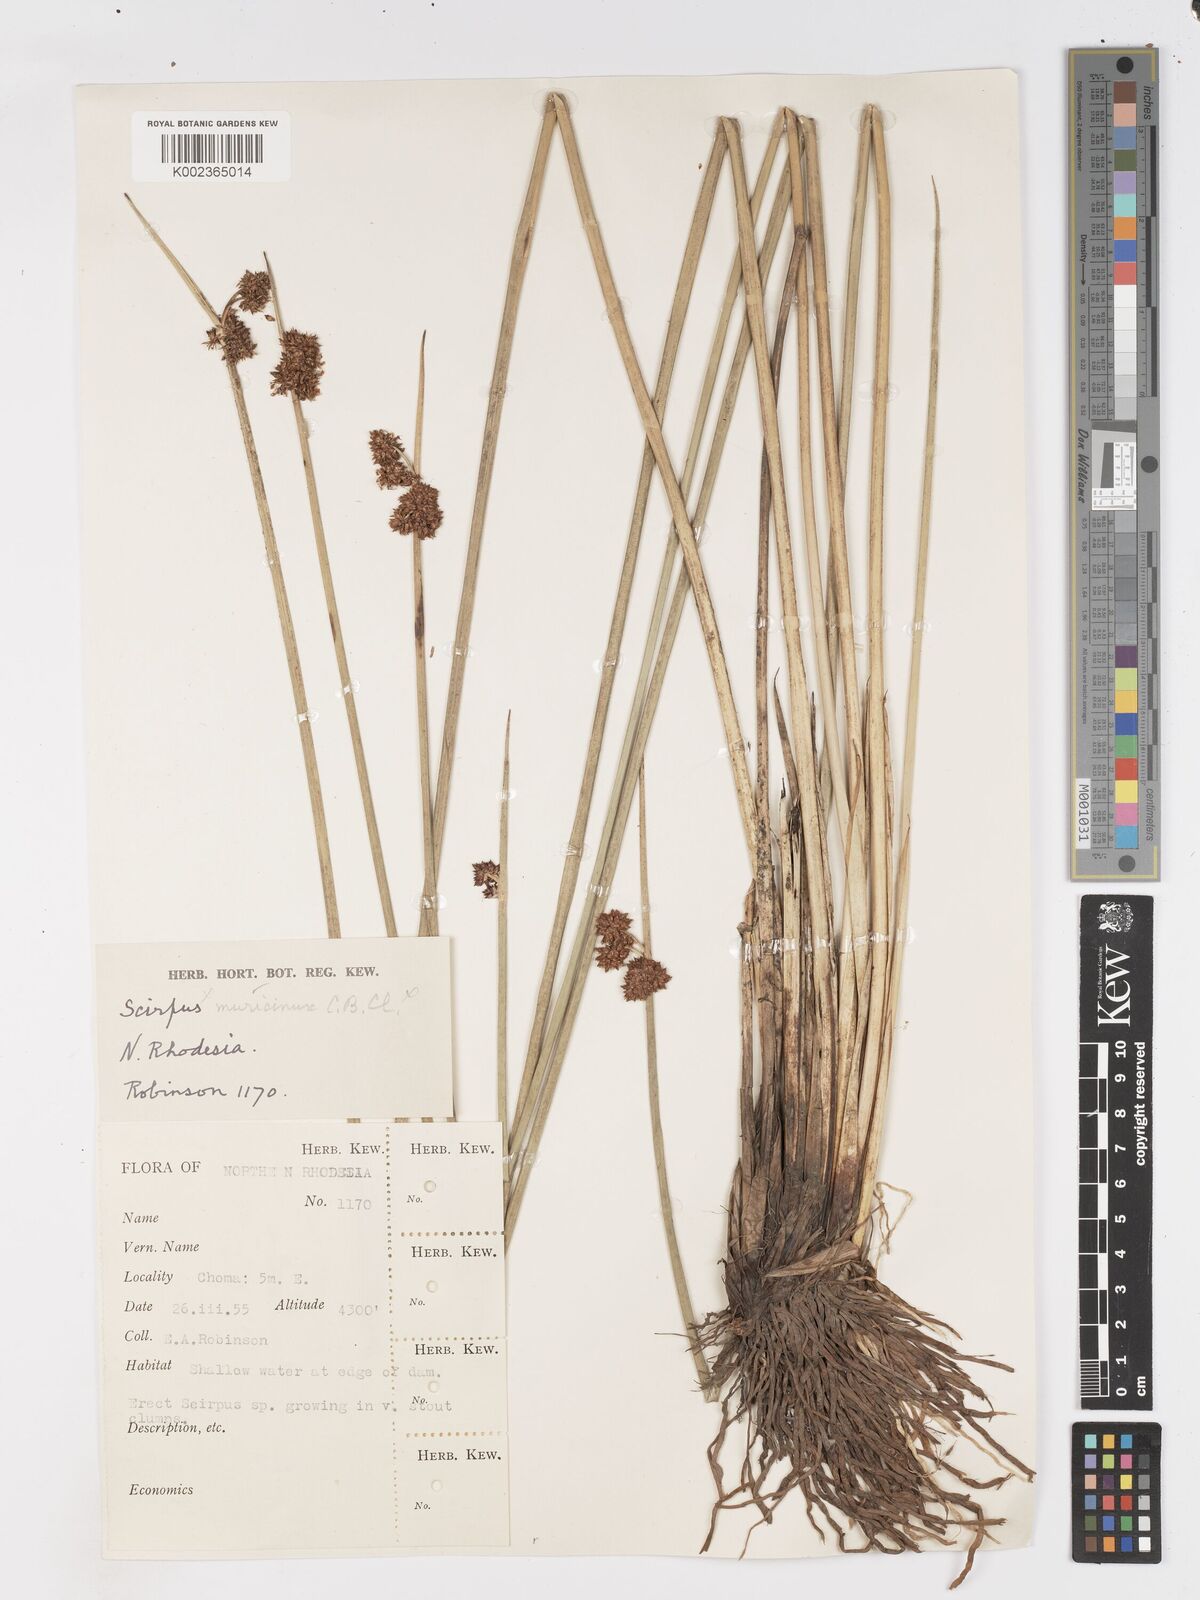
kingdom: Plantae
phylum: Tracheophyta
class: Liliopsida
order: Poales
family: Cyperaceae
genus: Schoenoplectiella
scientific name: Schoenoplectiella confusa
